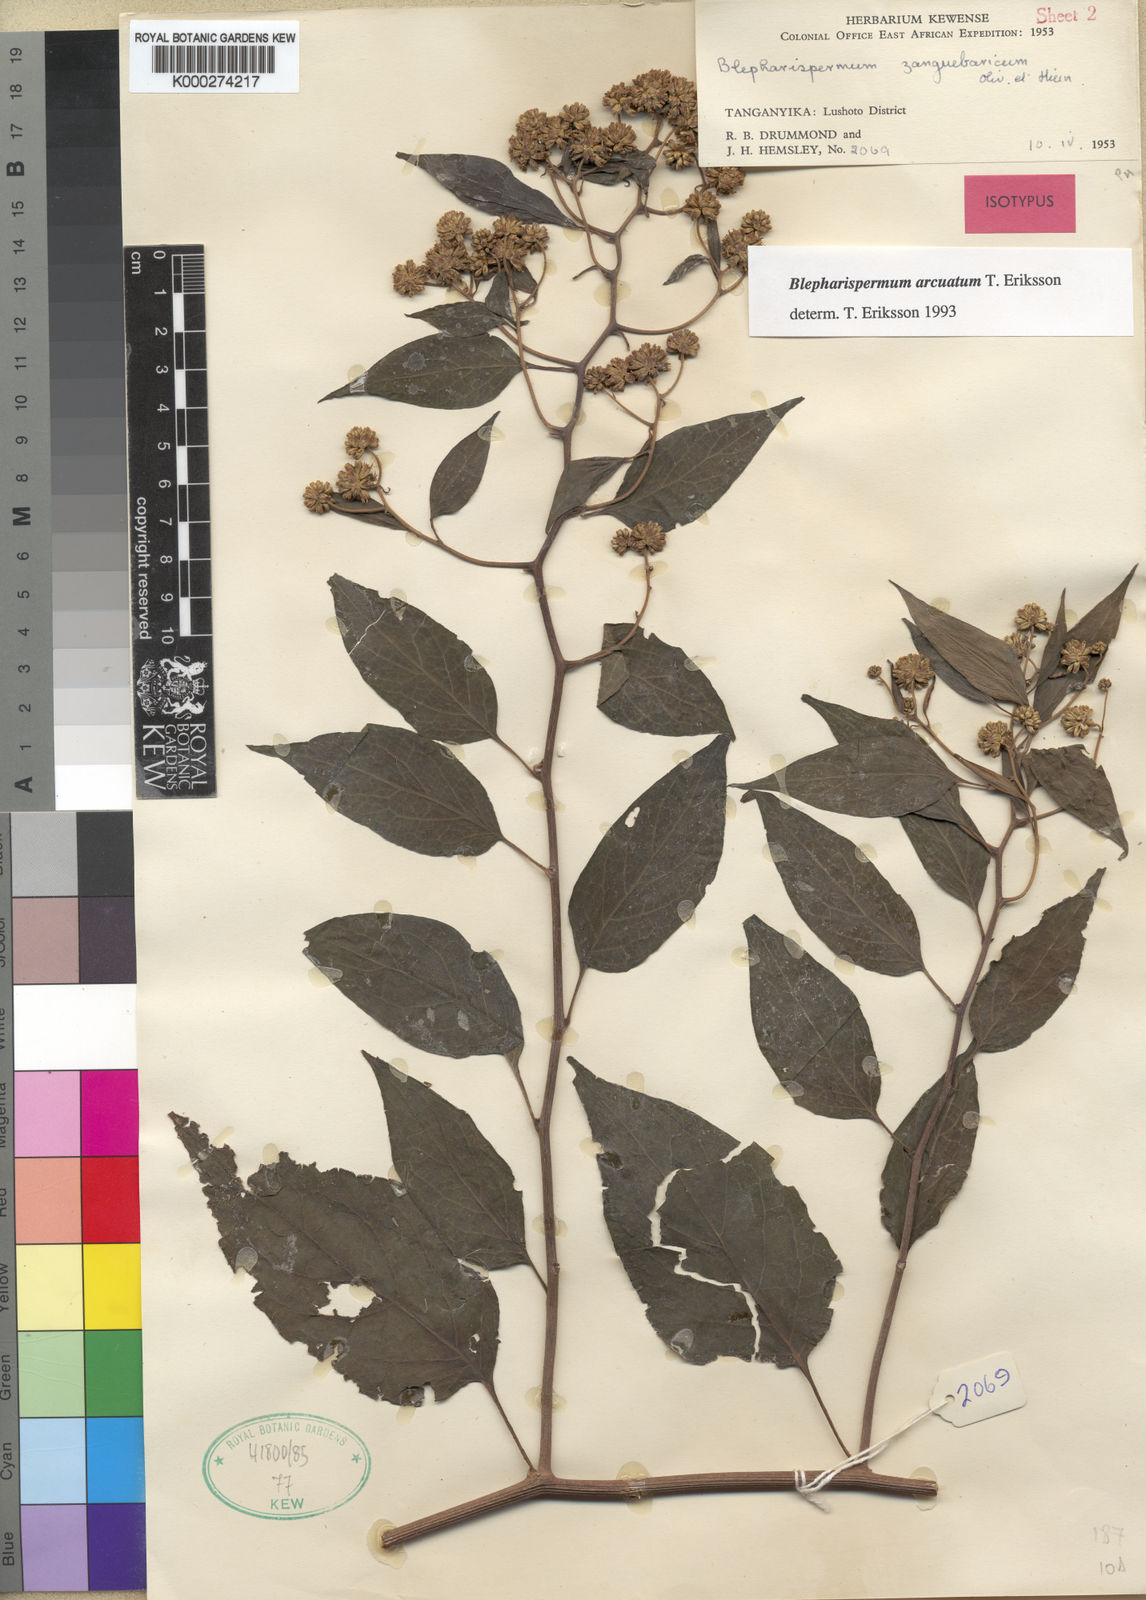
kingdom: Plantae
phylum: Tracheophyta
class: Magnoliopsida
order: Asterales
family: Asteraceae
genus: Blepharispermum
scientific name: Blepharispermum arcuatum
